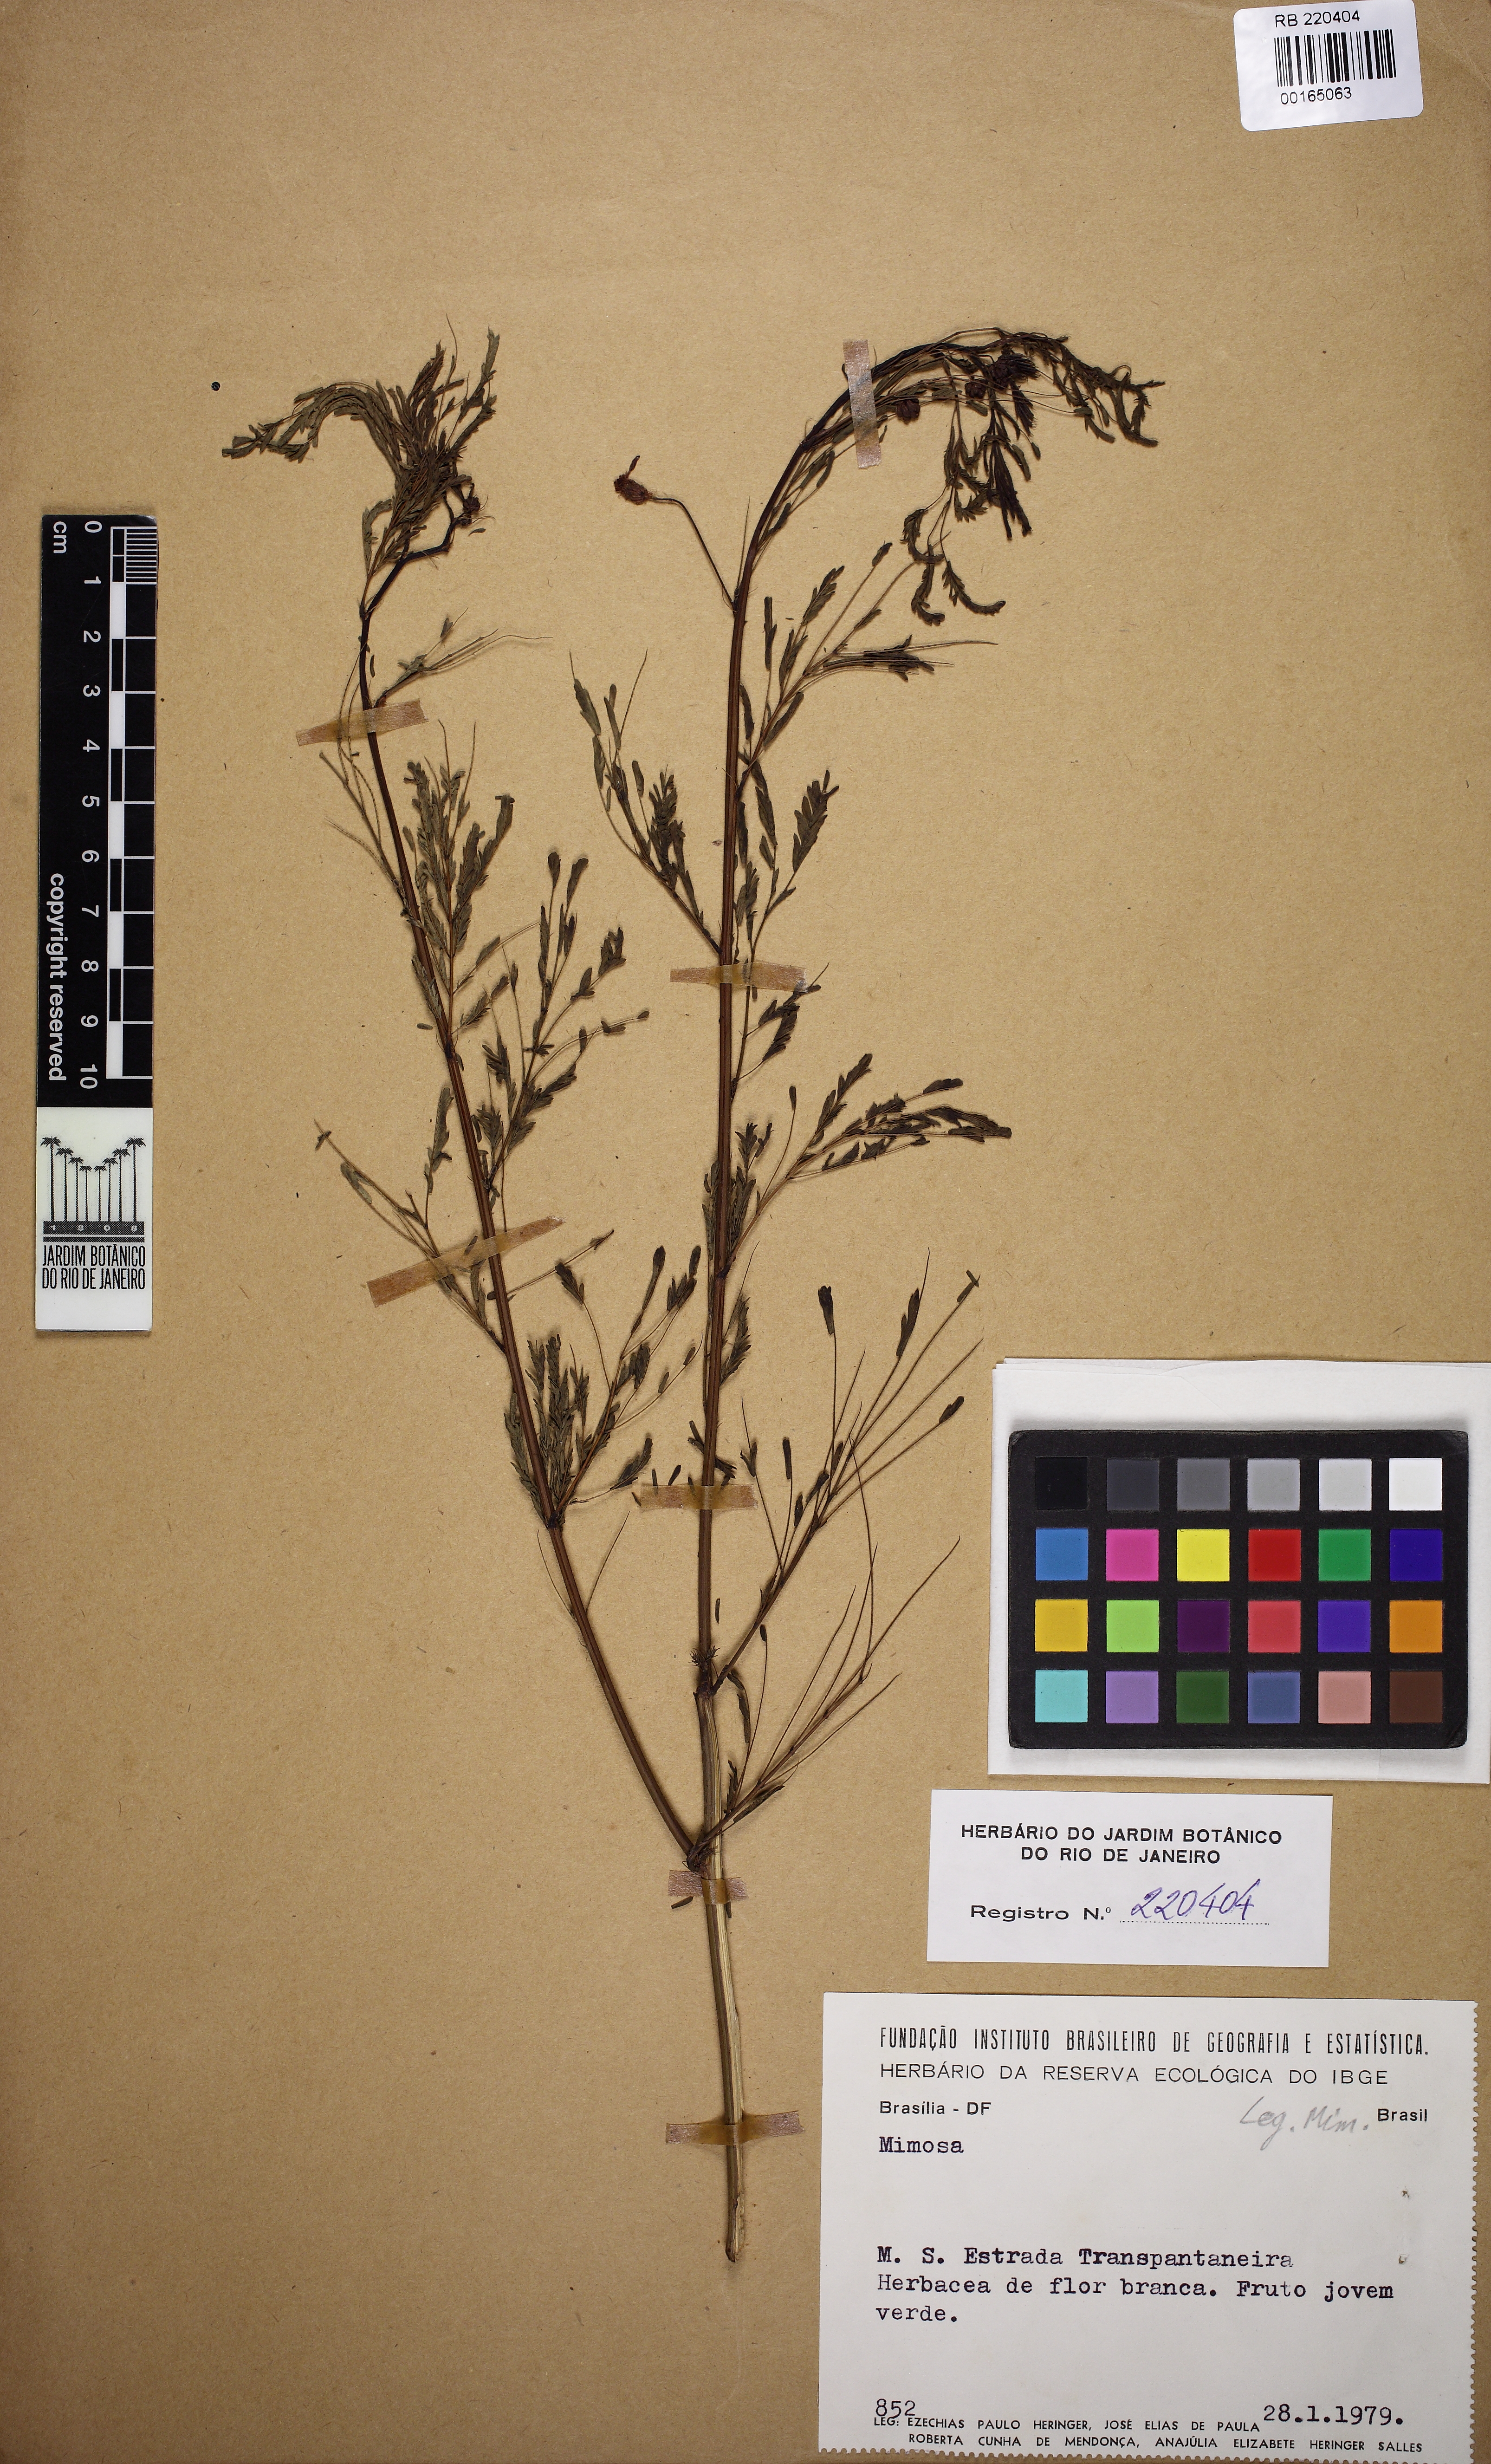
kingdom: Plantae
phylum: Tracheophyta
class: Magnoliopsida
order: Fabales
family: Fabaceae
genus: Mimosa
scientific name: Mimosa
